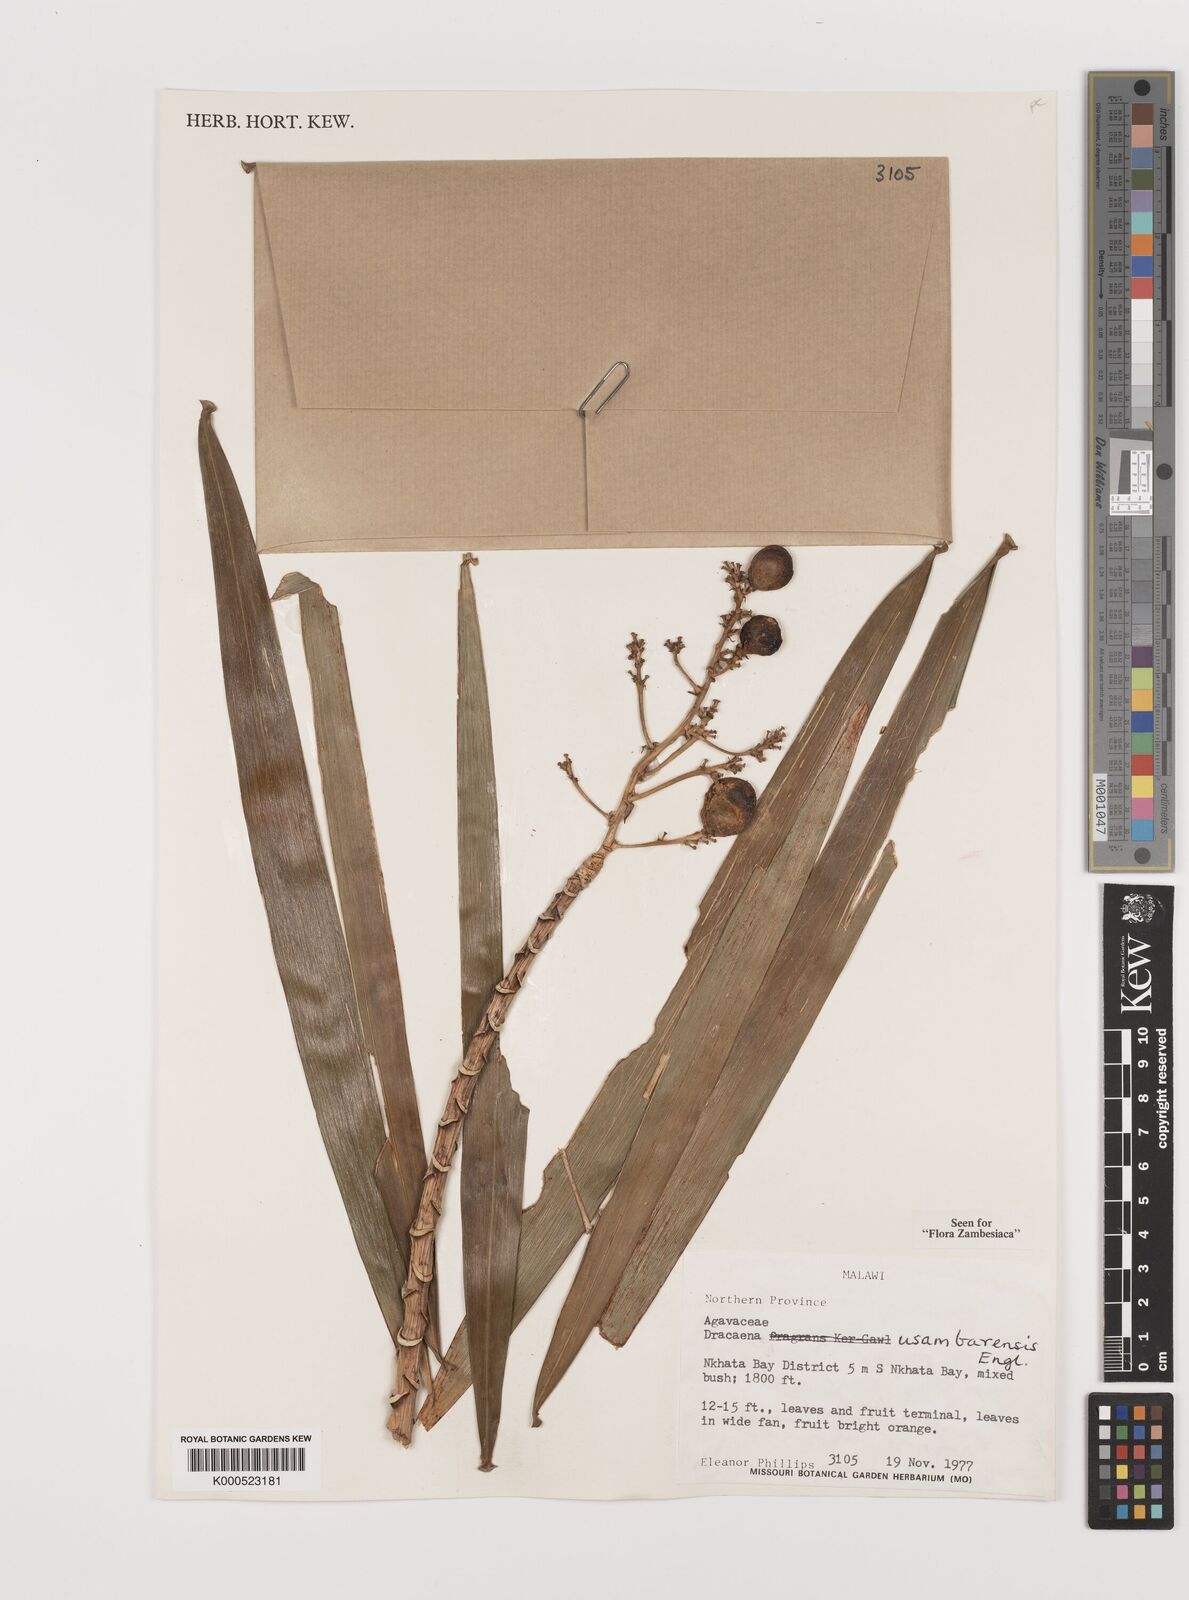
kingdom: Plantae
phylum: Tracheophyta
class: Liliopsida
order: Asparagales
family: Asparagaceae
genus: Dracaena
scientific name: Dracaena usambarensis
